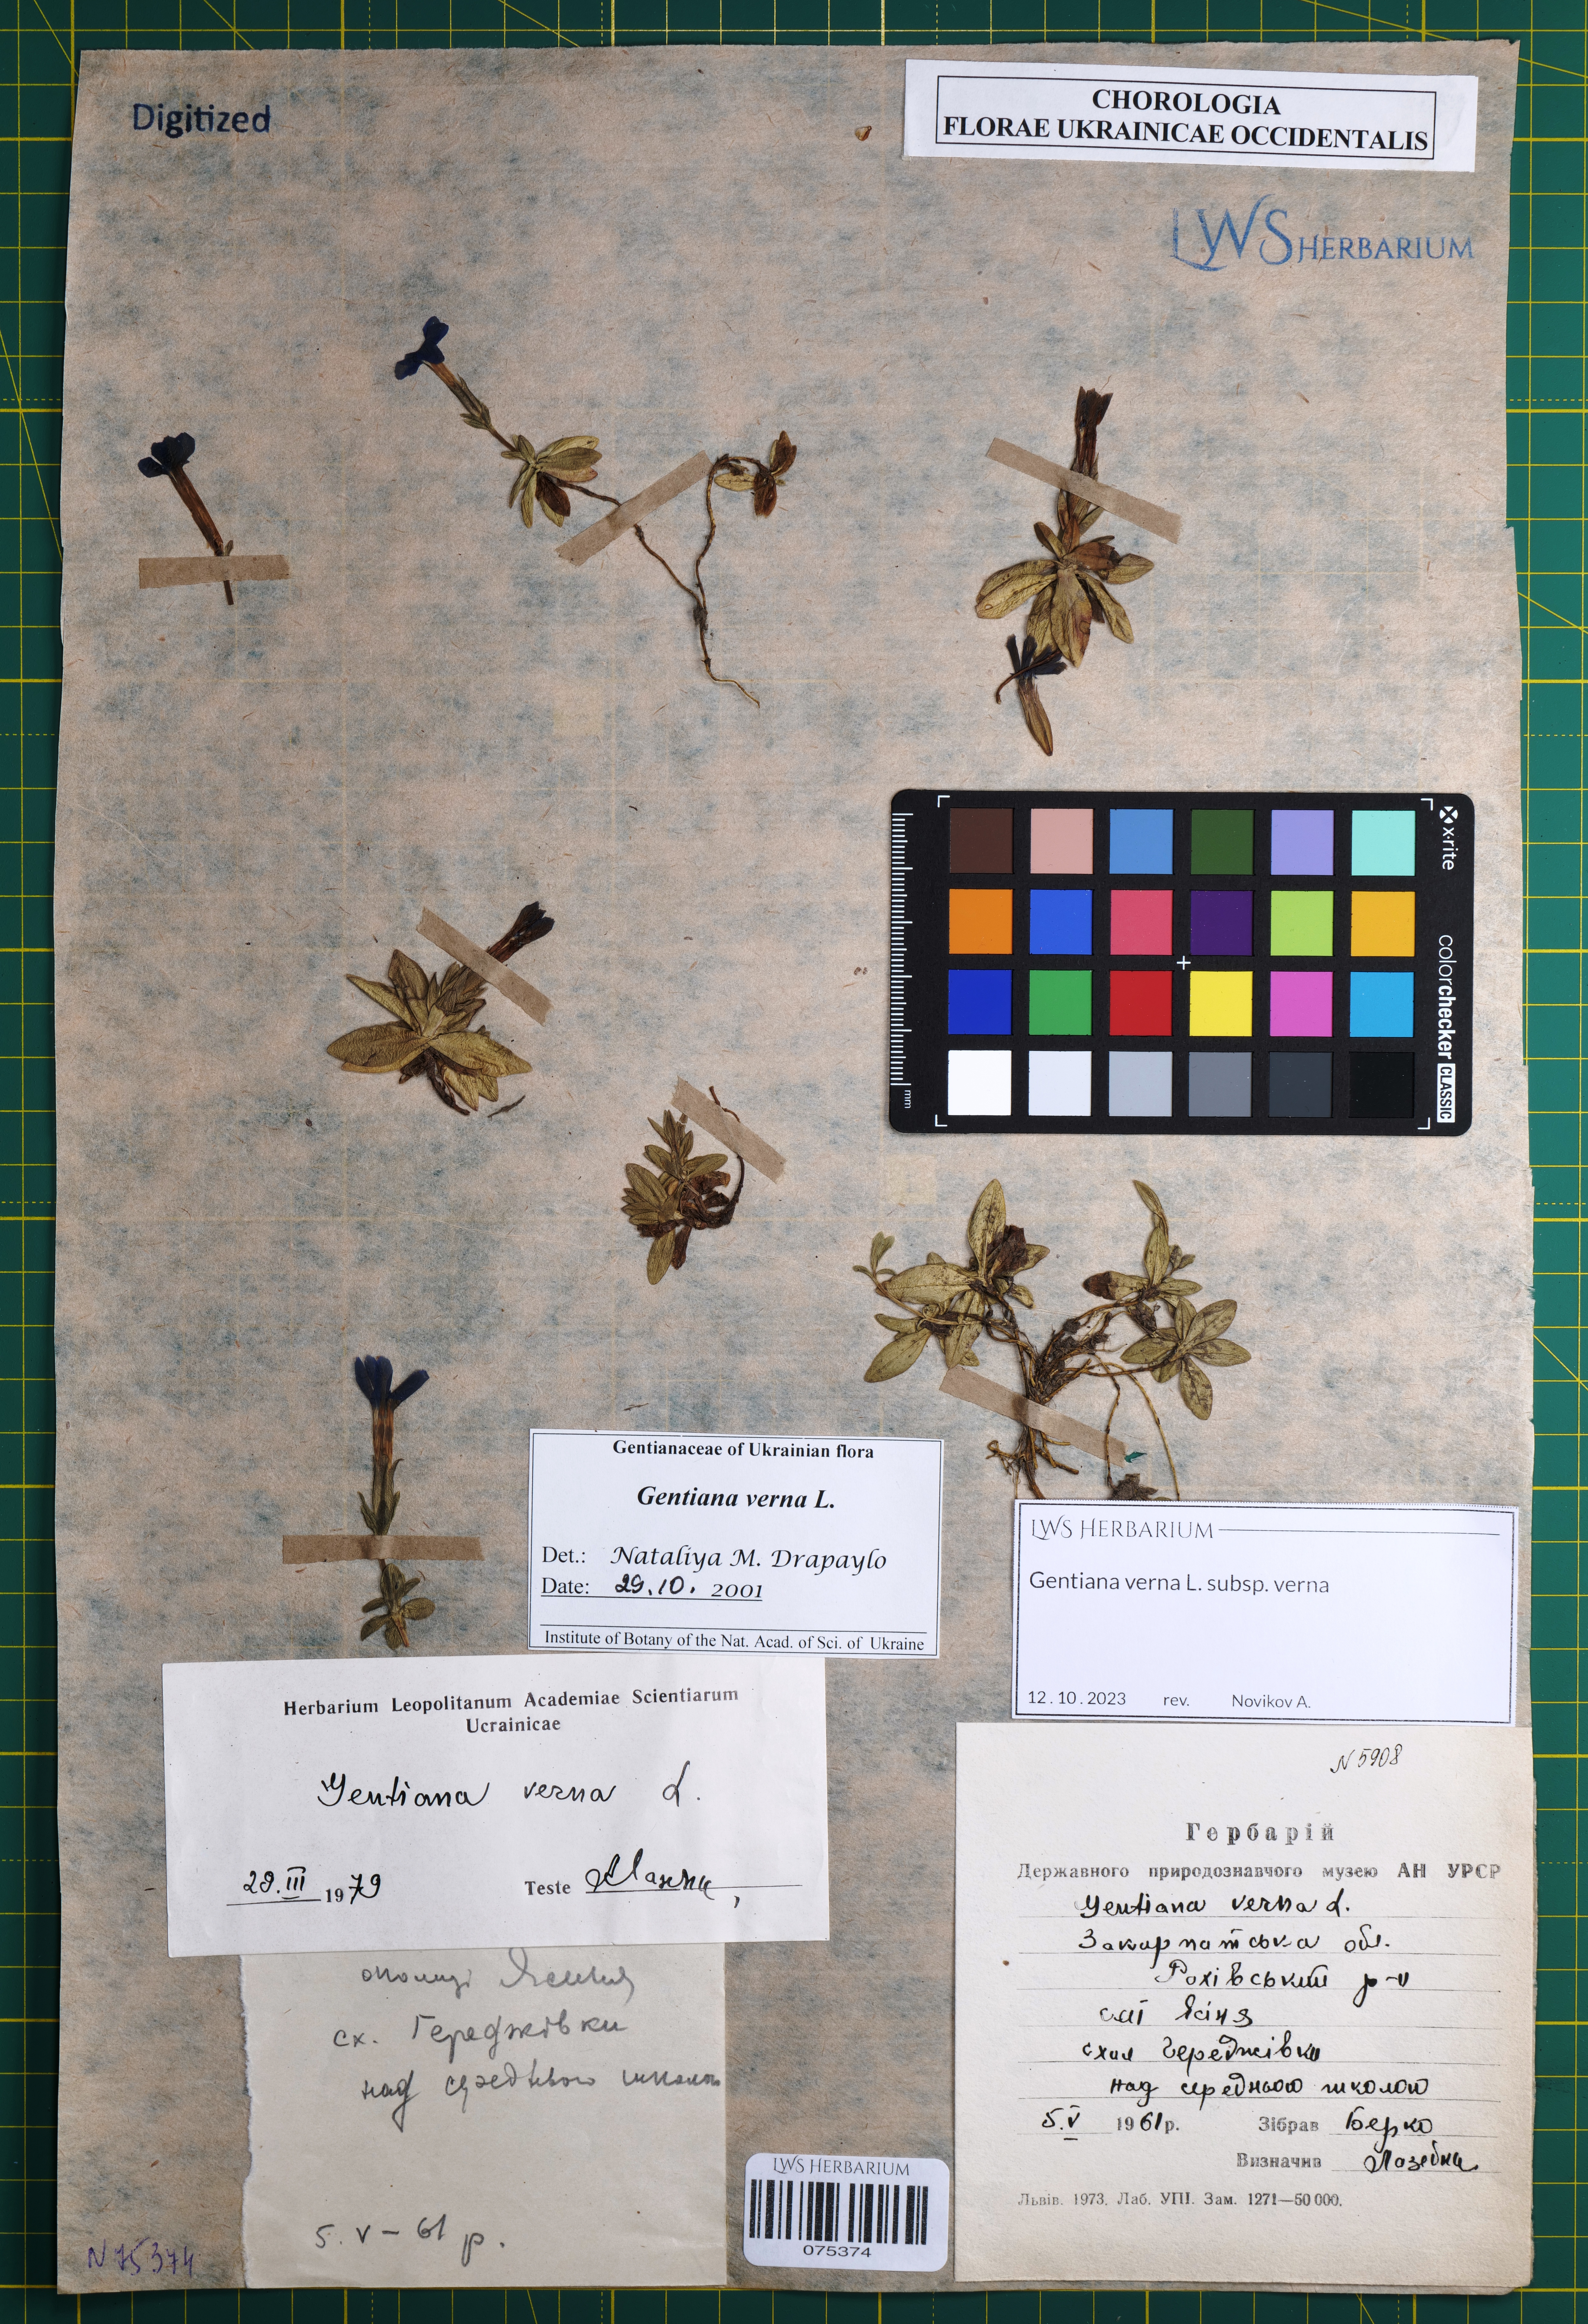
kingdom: Plantae
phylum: Tracheophyta
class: Magnoliopsida
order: Gentianales
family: Gentianaceae
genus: Gentiana
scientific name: Gentiana verna
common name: Spring gentian
